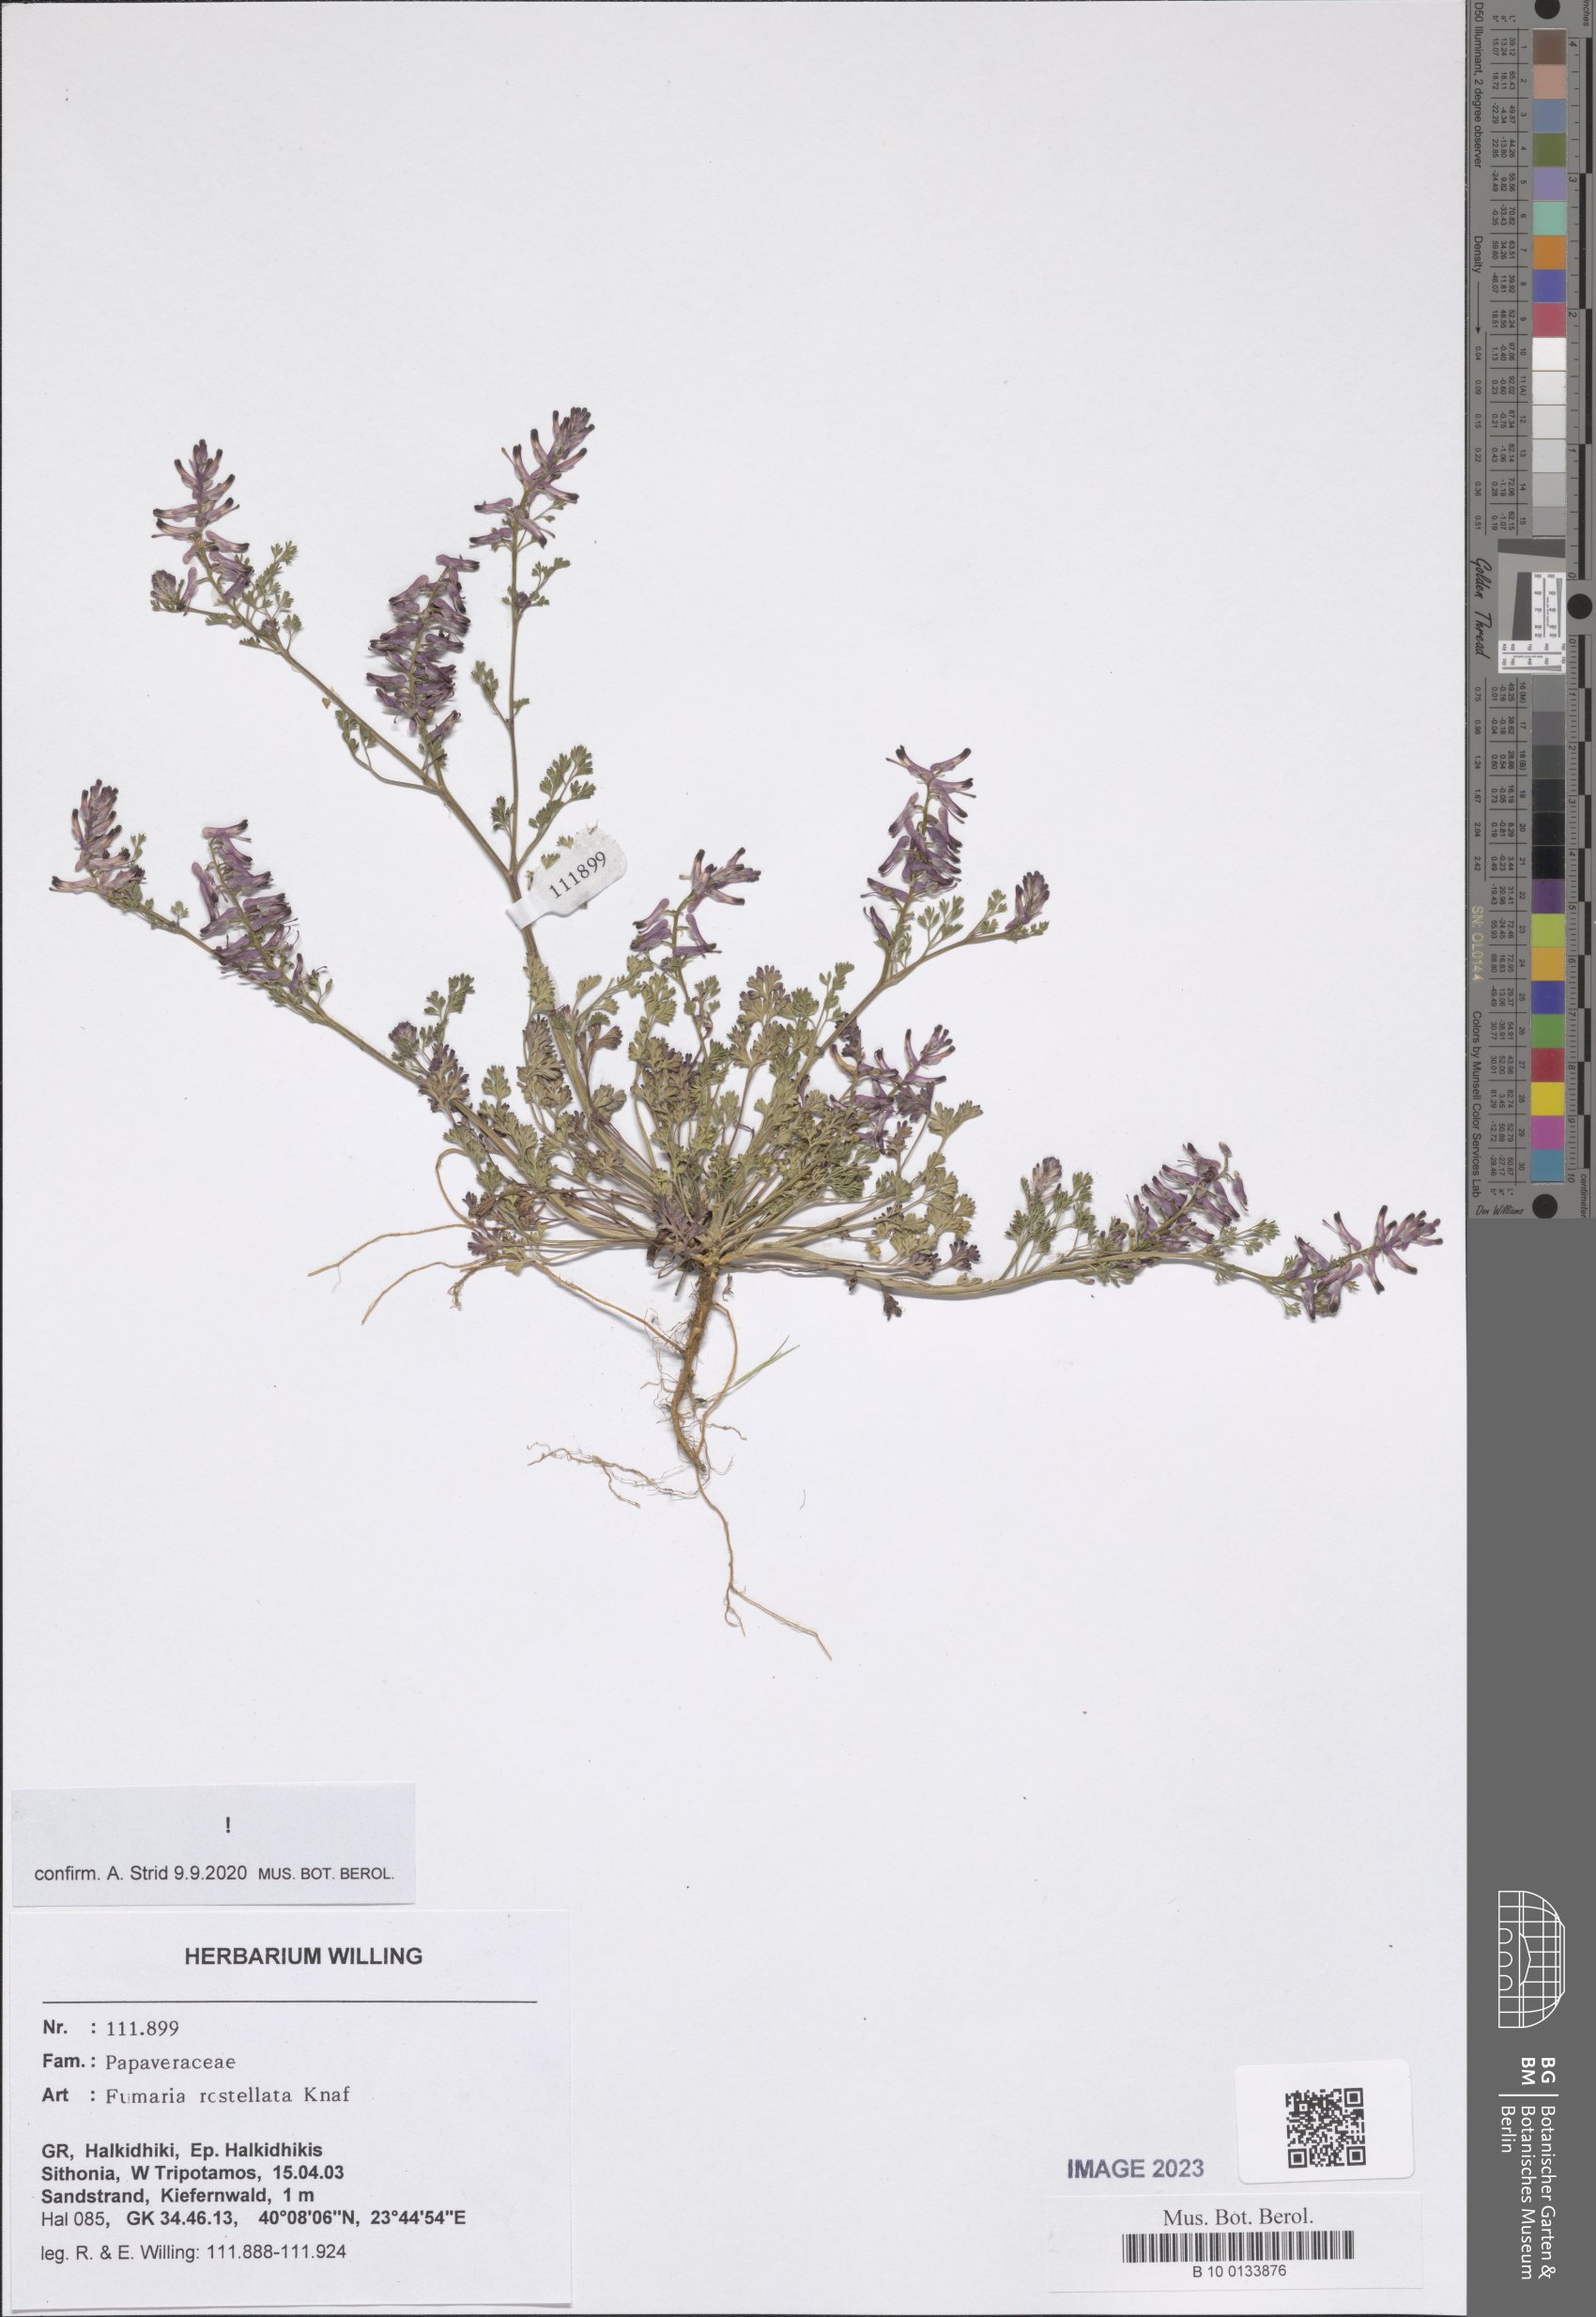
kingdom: Plantae
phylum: Tracheophyta
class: Magnoliopsida
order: Ranunculales
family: Papaveraceae
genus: Fumaria
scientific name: Fumaria rostellata
